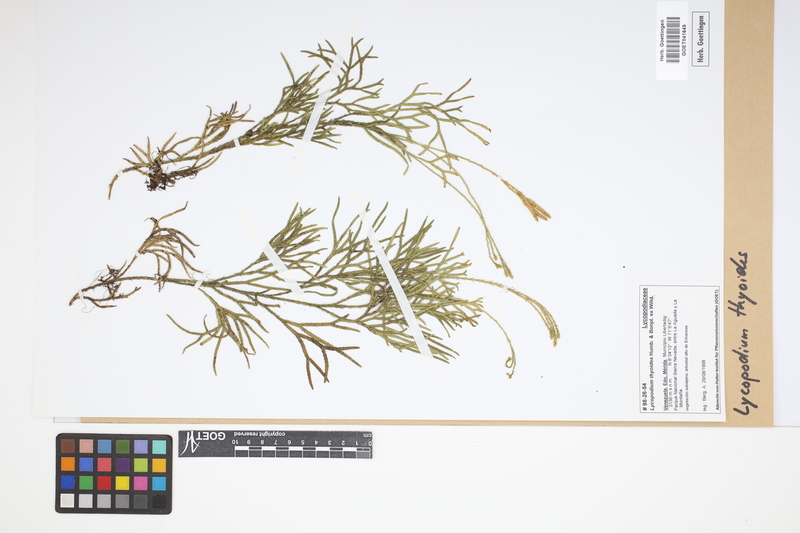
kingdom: Plantae
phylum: Tracheophyta
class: Lycopodiopsida
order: Lycopodiales
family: Lycopodiaceae
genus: Diphasiastrum
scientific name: Diphasiastrum thyoides
